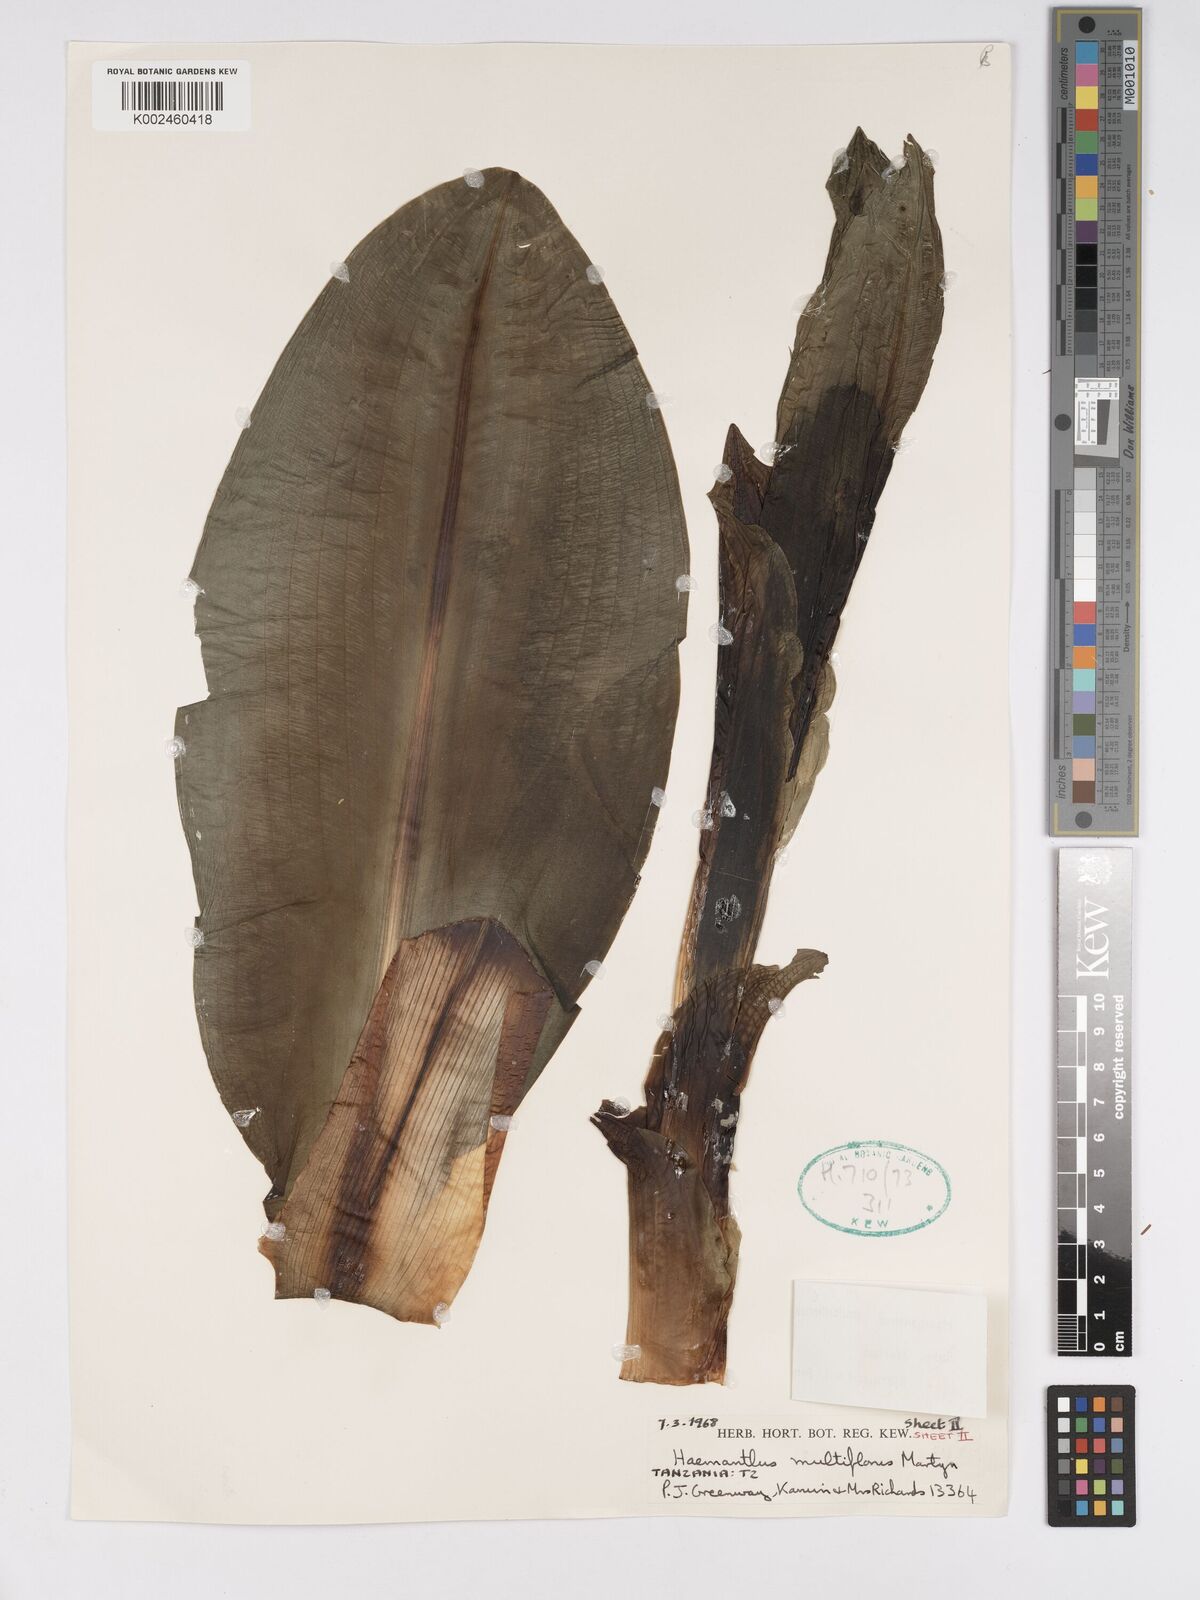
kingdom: Plantae
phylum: Tracheophyta
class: Liliopsida
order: Asparagales
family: Amaryllidaceae
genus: Scadoxus
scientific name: Scadoxus multiflorus
